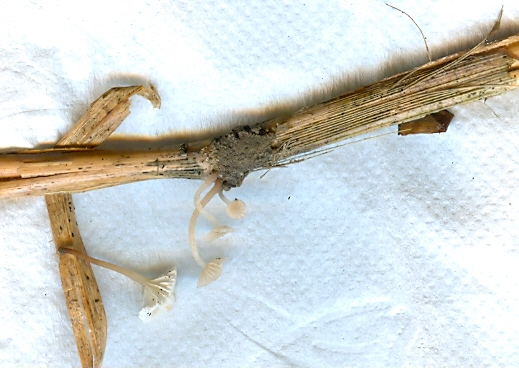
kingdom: Fungi
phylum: Basidiomycota
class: Agaricomycetes
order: Agaricales
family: Omphalotaceae
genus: Collybiopsis
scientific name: Collybiopsis vaillantii
